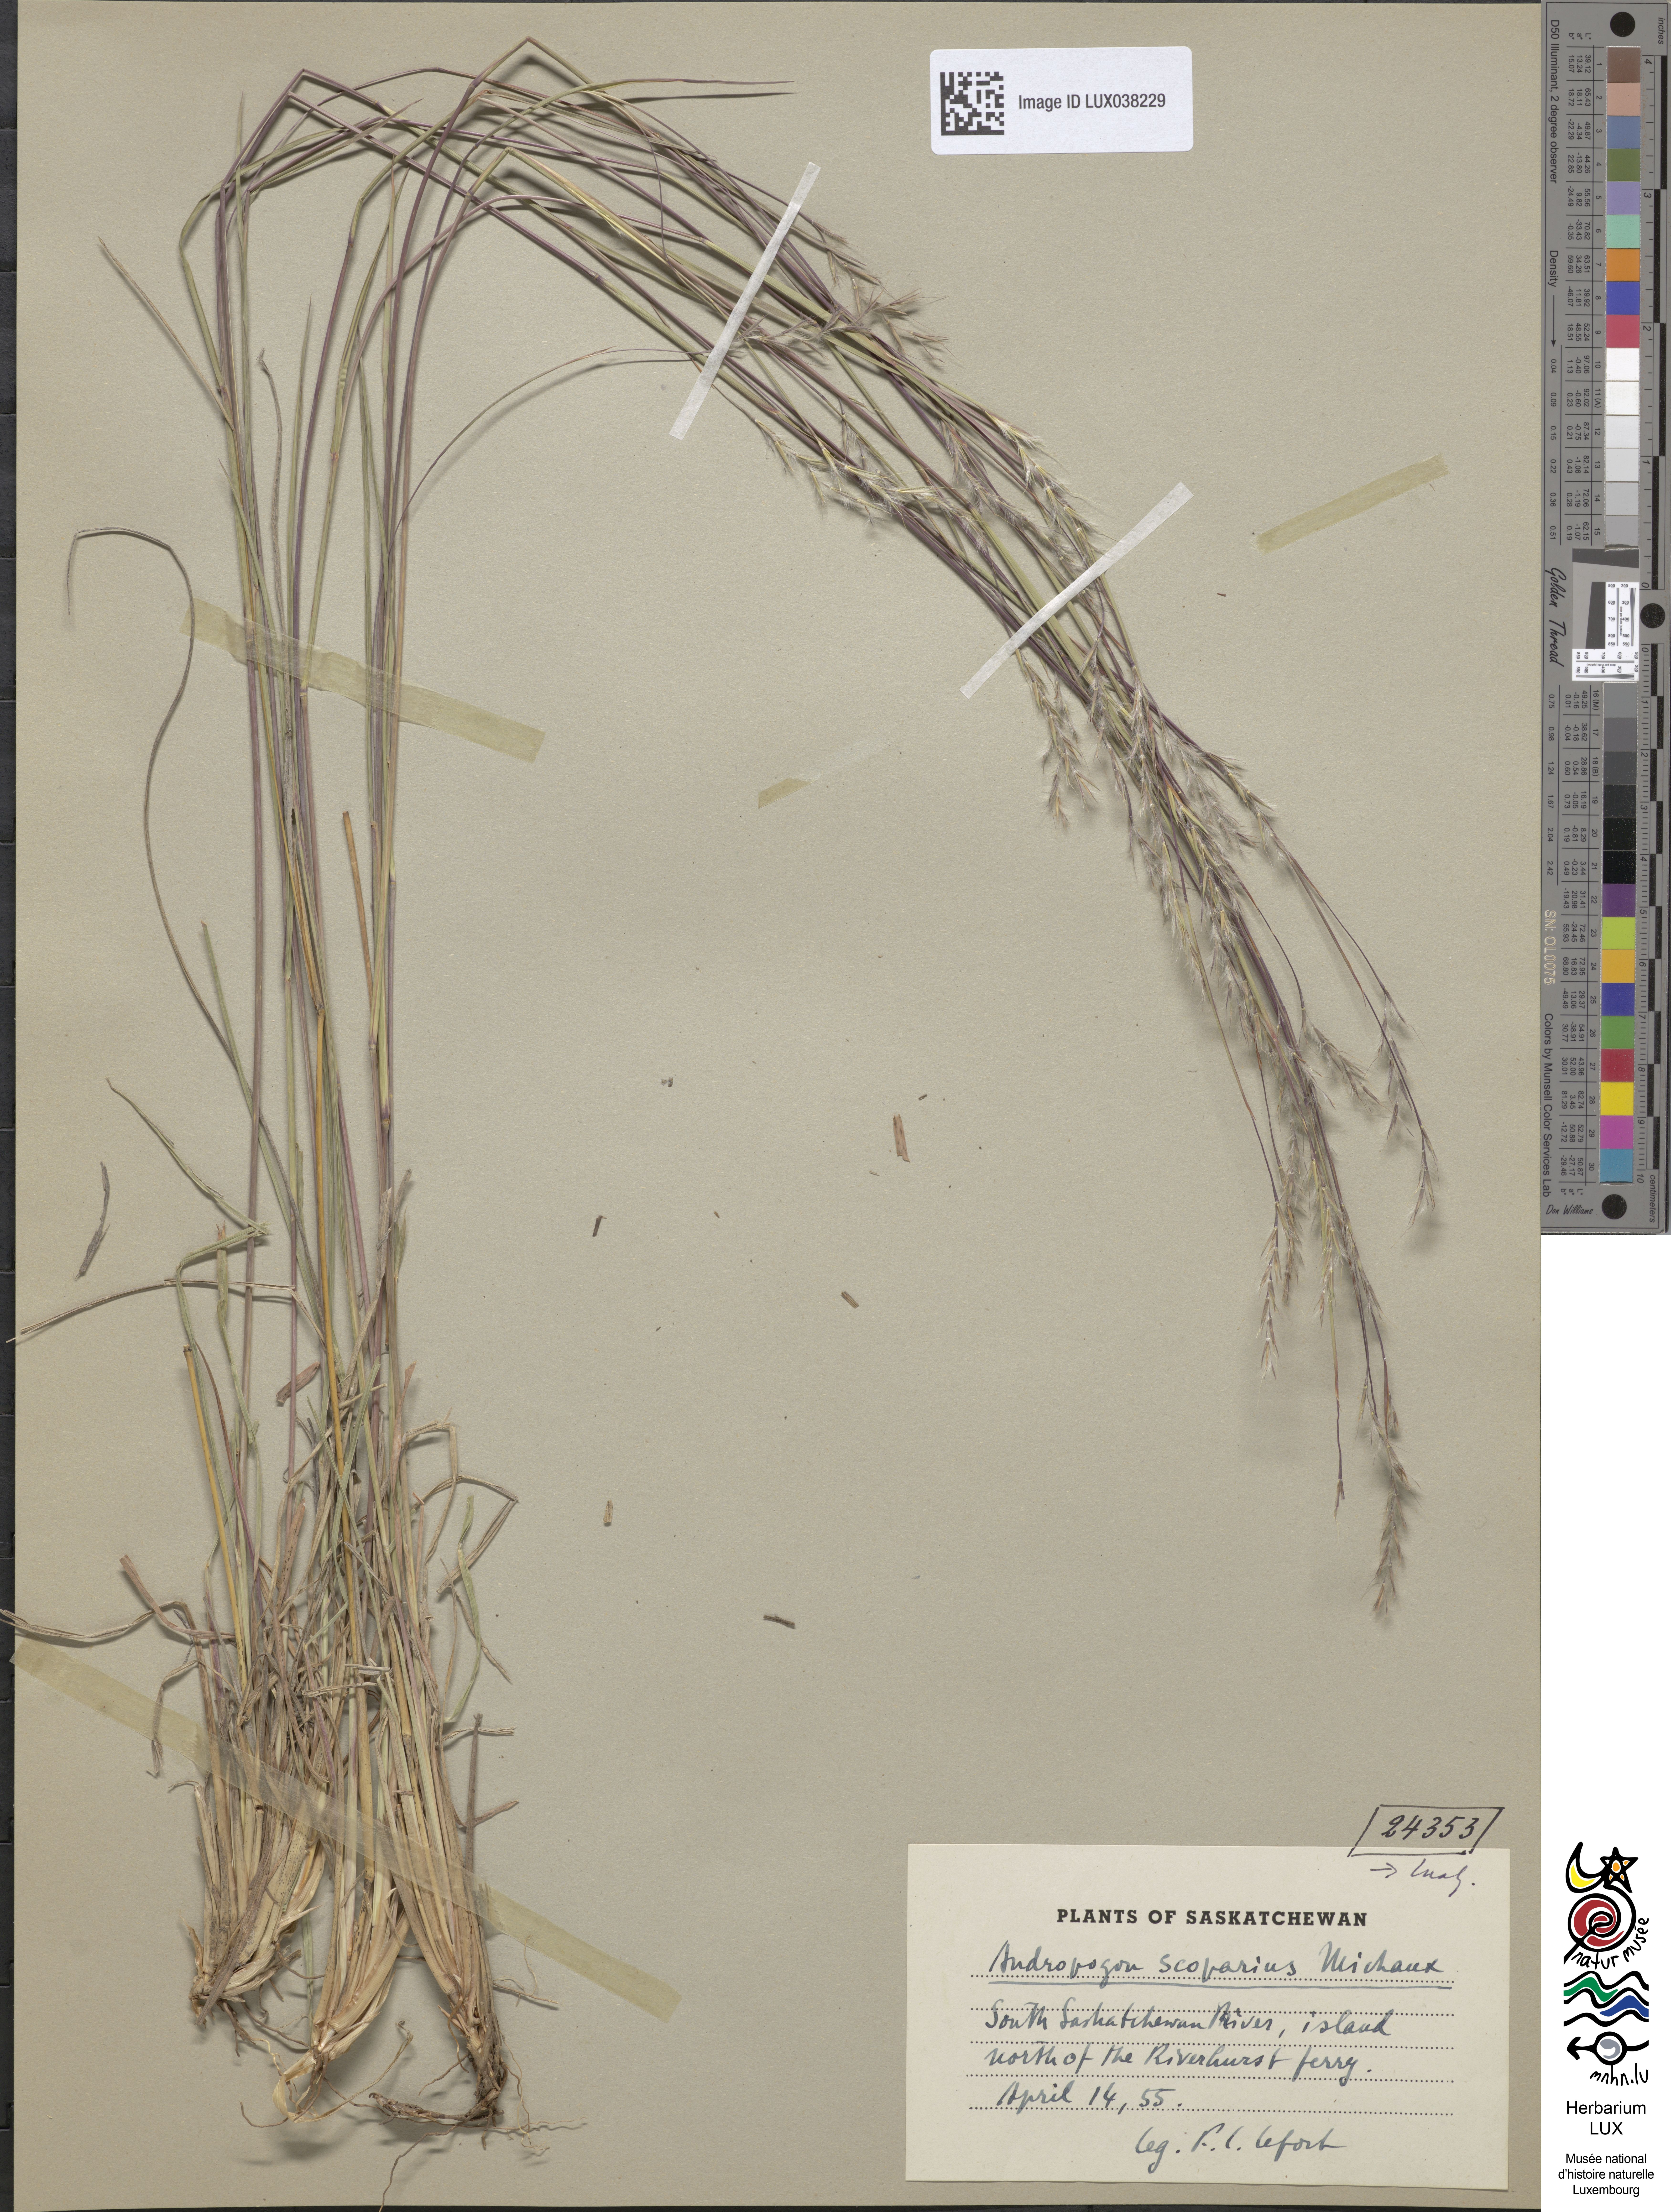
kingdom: Plantae
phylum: Tracheophyta
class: Liliopsida
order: Poales
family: Poaceae
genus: Schizachyrium
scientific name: Schizachyrium scoparium
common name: Little bluestem
